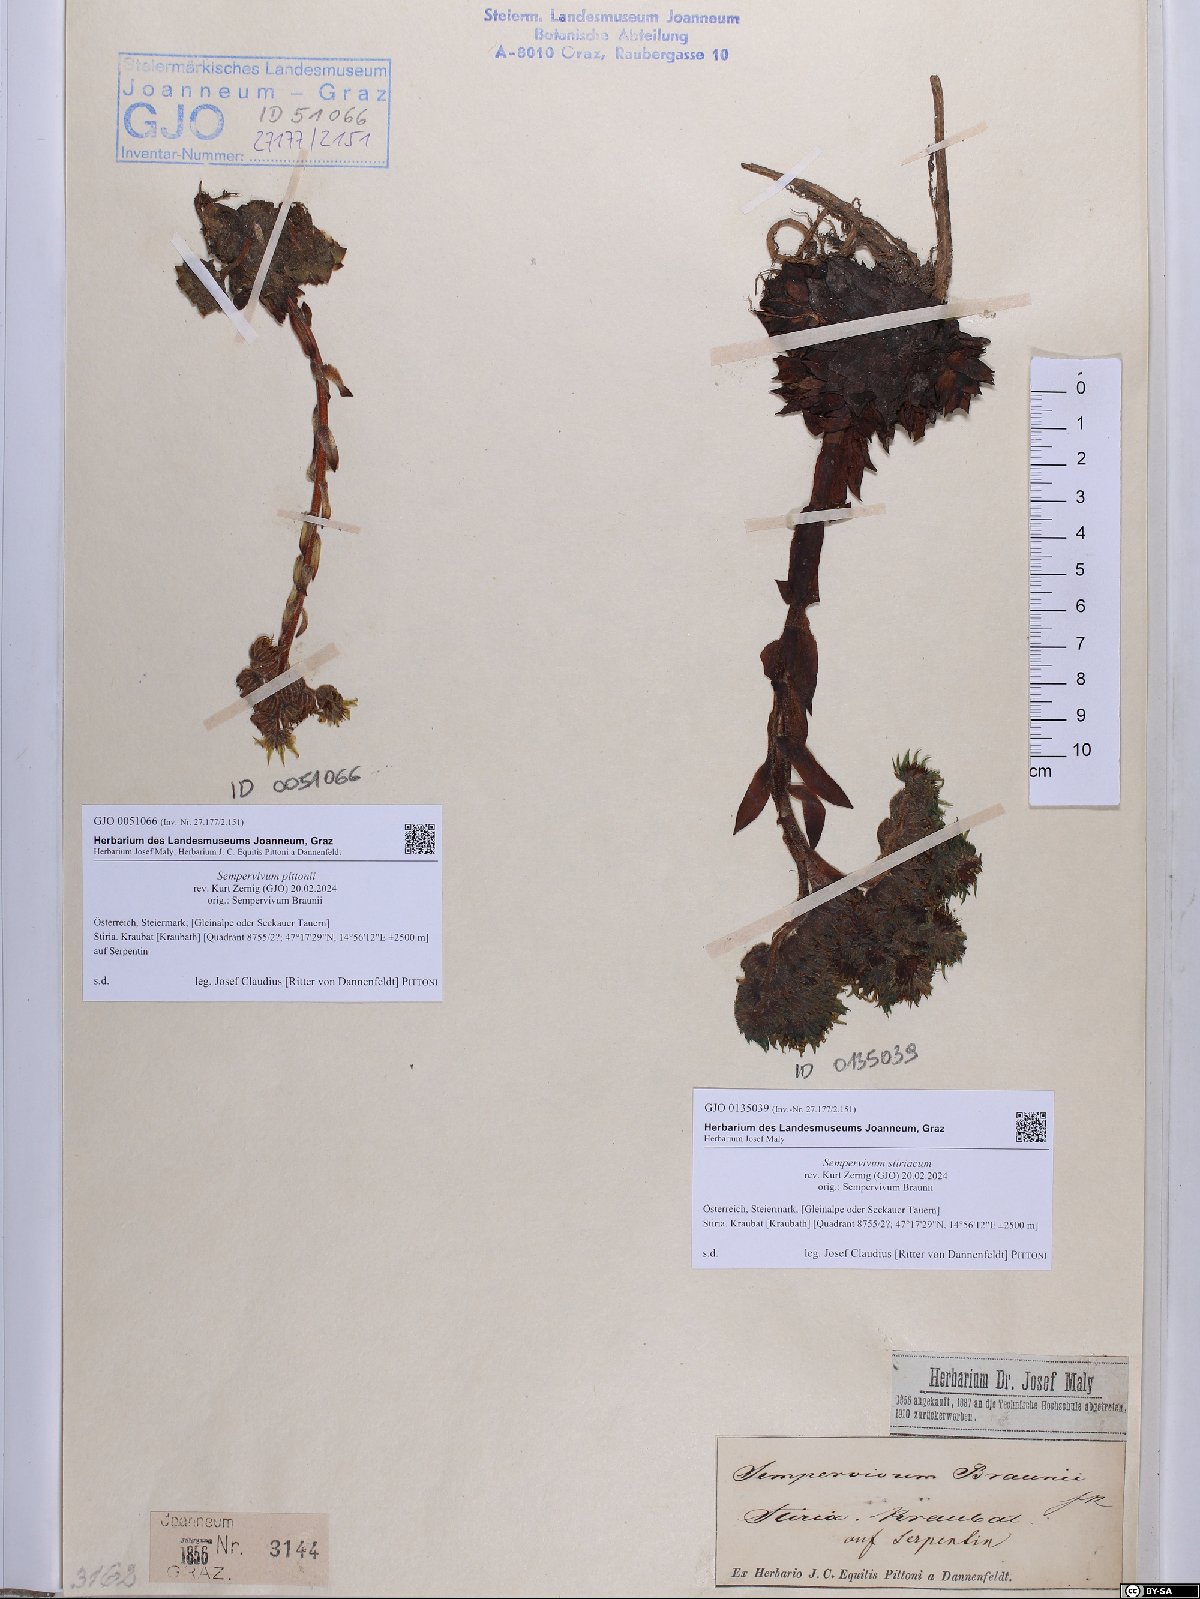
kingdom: Plantae
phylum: Tracheophyta
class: Magnoliopsida
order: Saxifragales
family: Crassulaceae
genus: Sempervivum
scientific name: Sempervivum montanum
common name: Mountain house-leek
